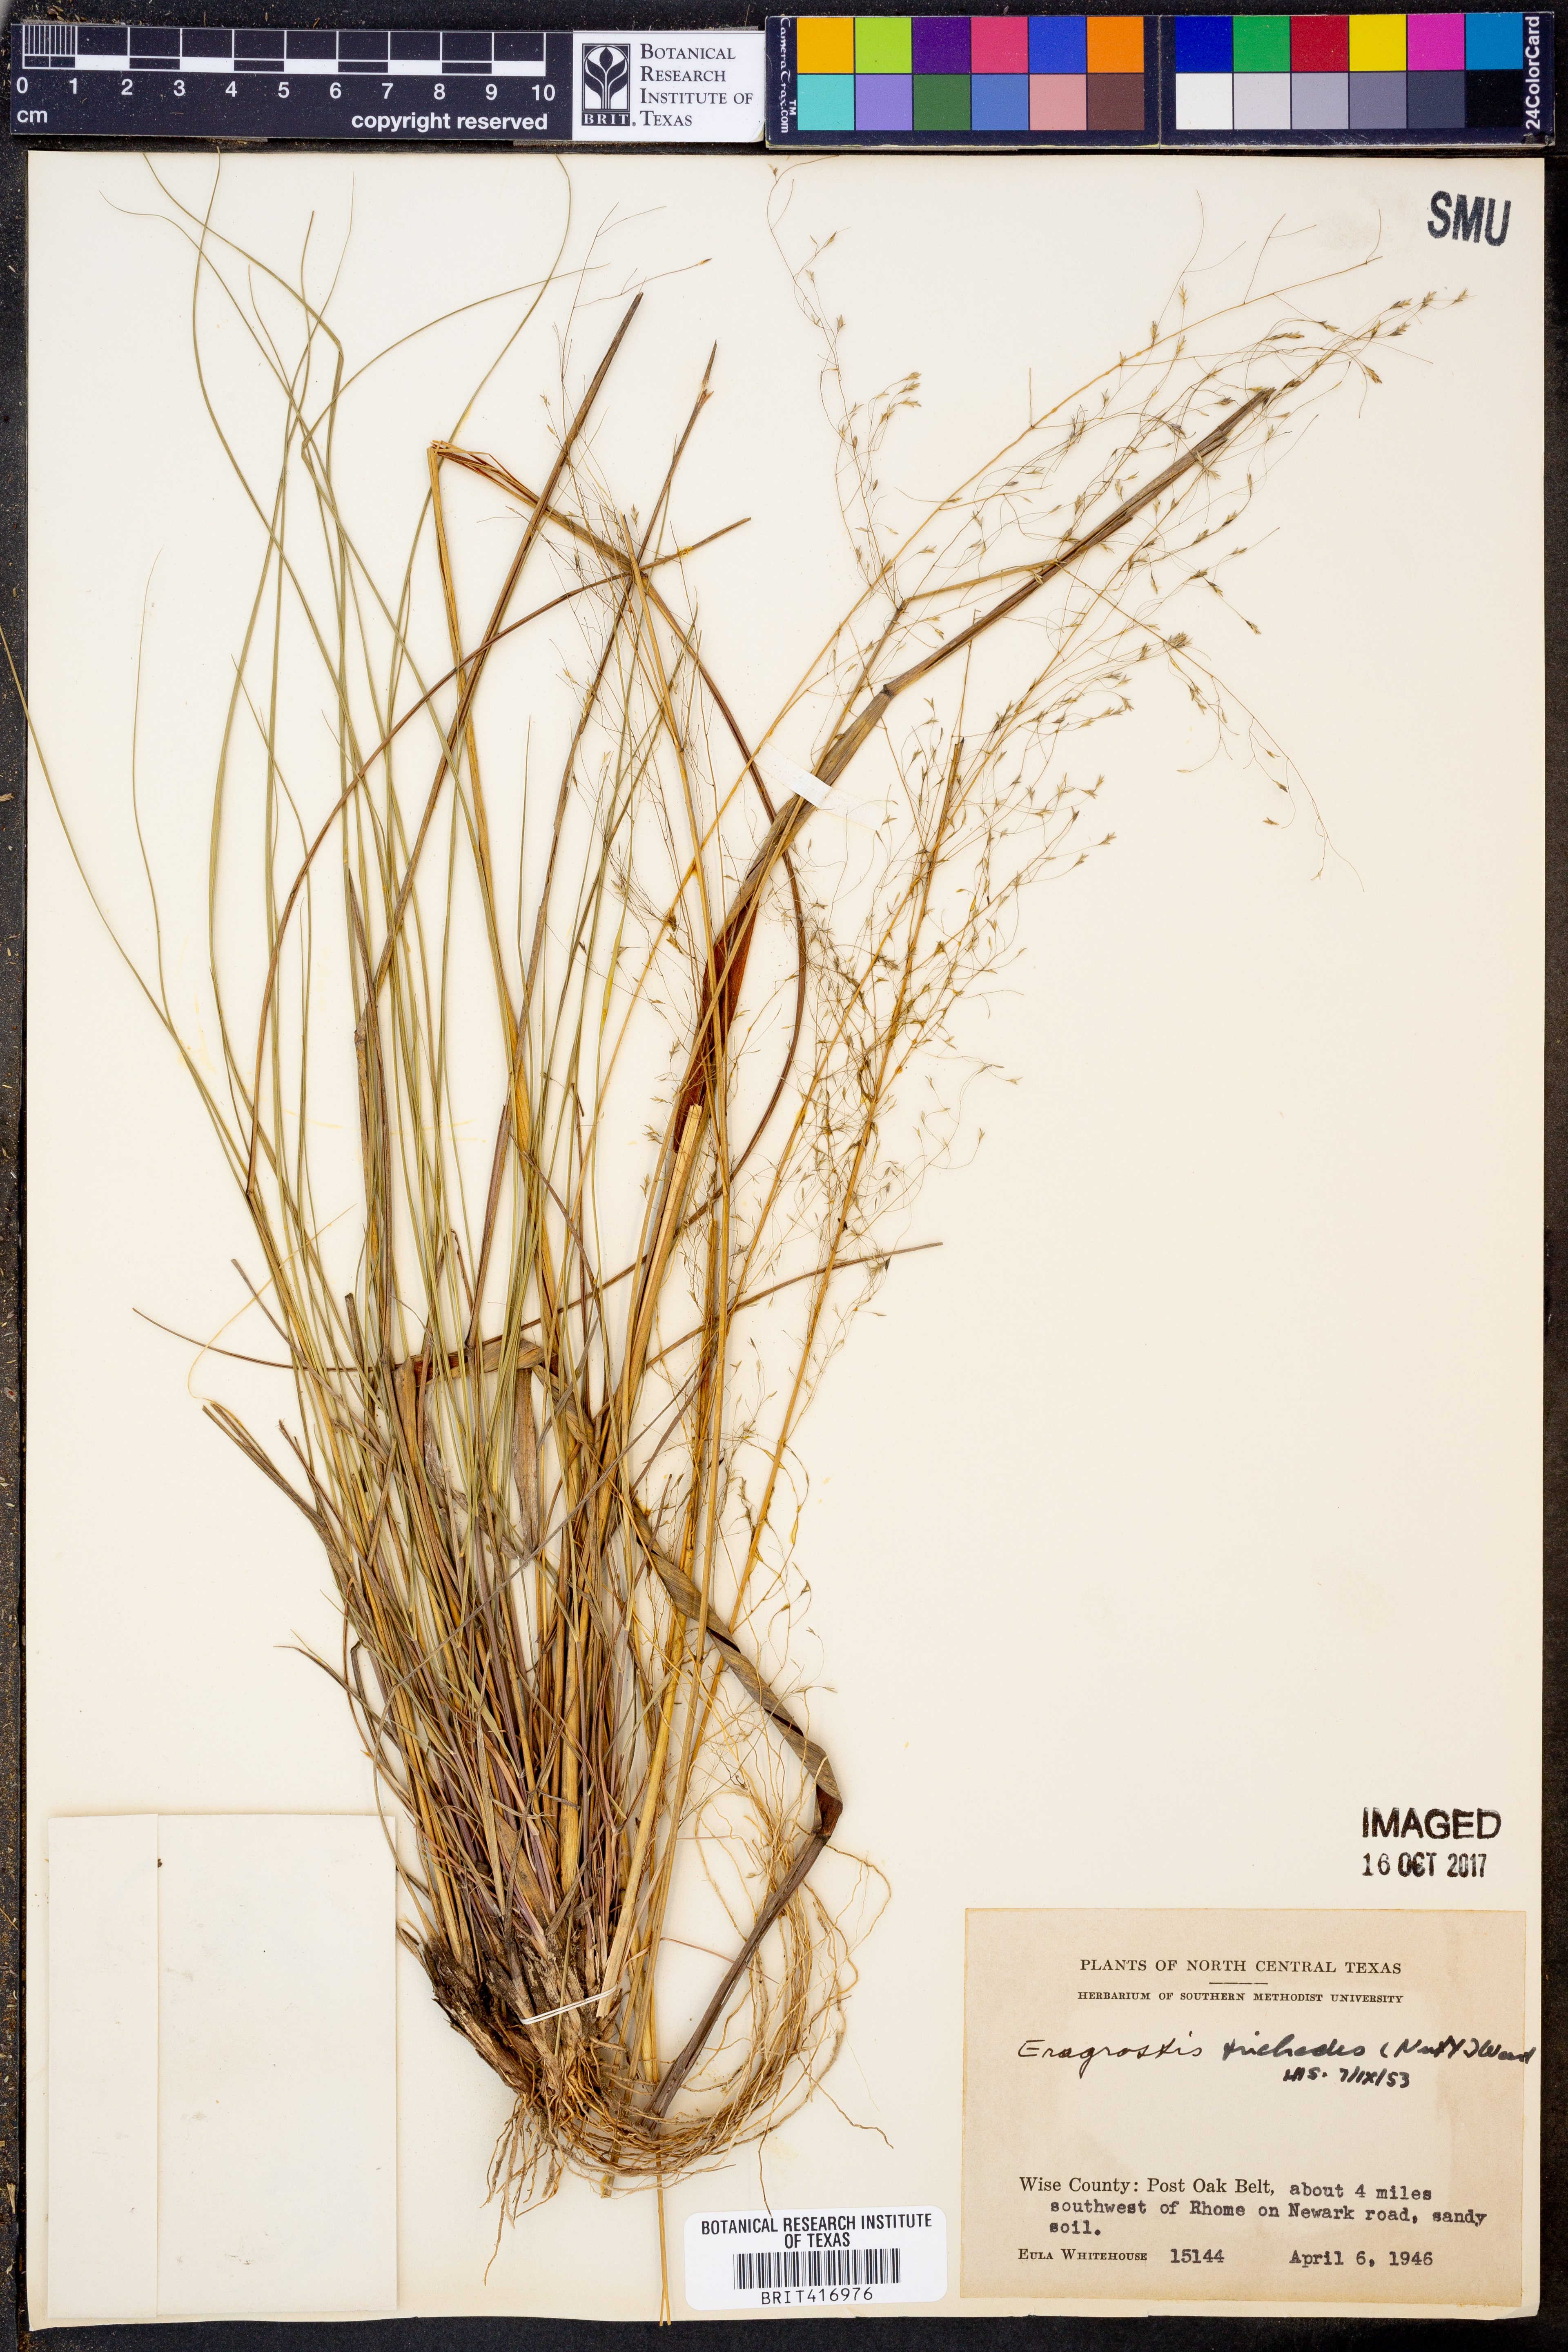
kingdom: Plantae
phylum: Tracheophyta
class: Liliopsida
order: Poales
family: Poaceae
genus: Eragrostis
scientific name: Eragrostis trichodes
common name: Sand love grass
